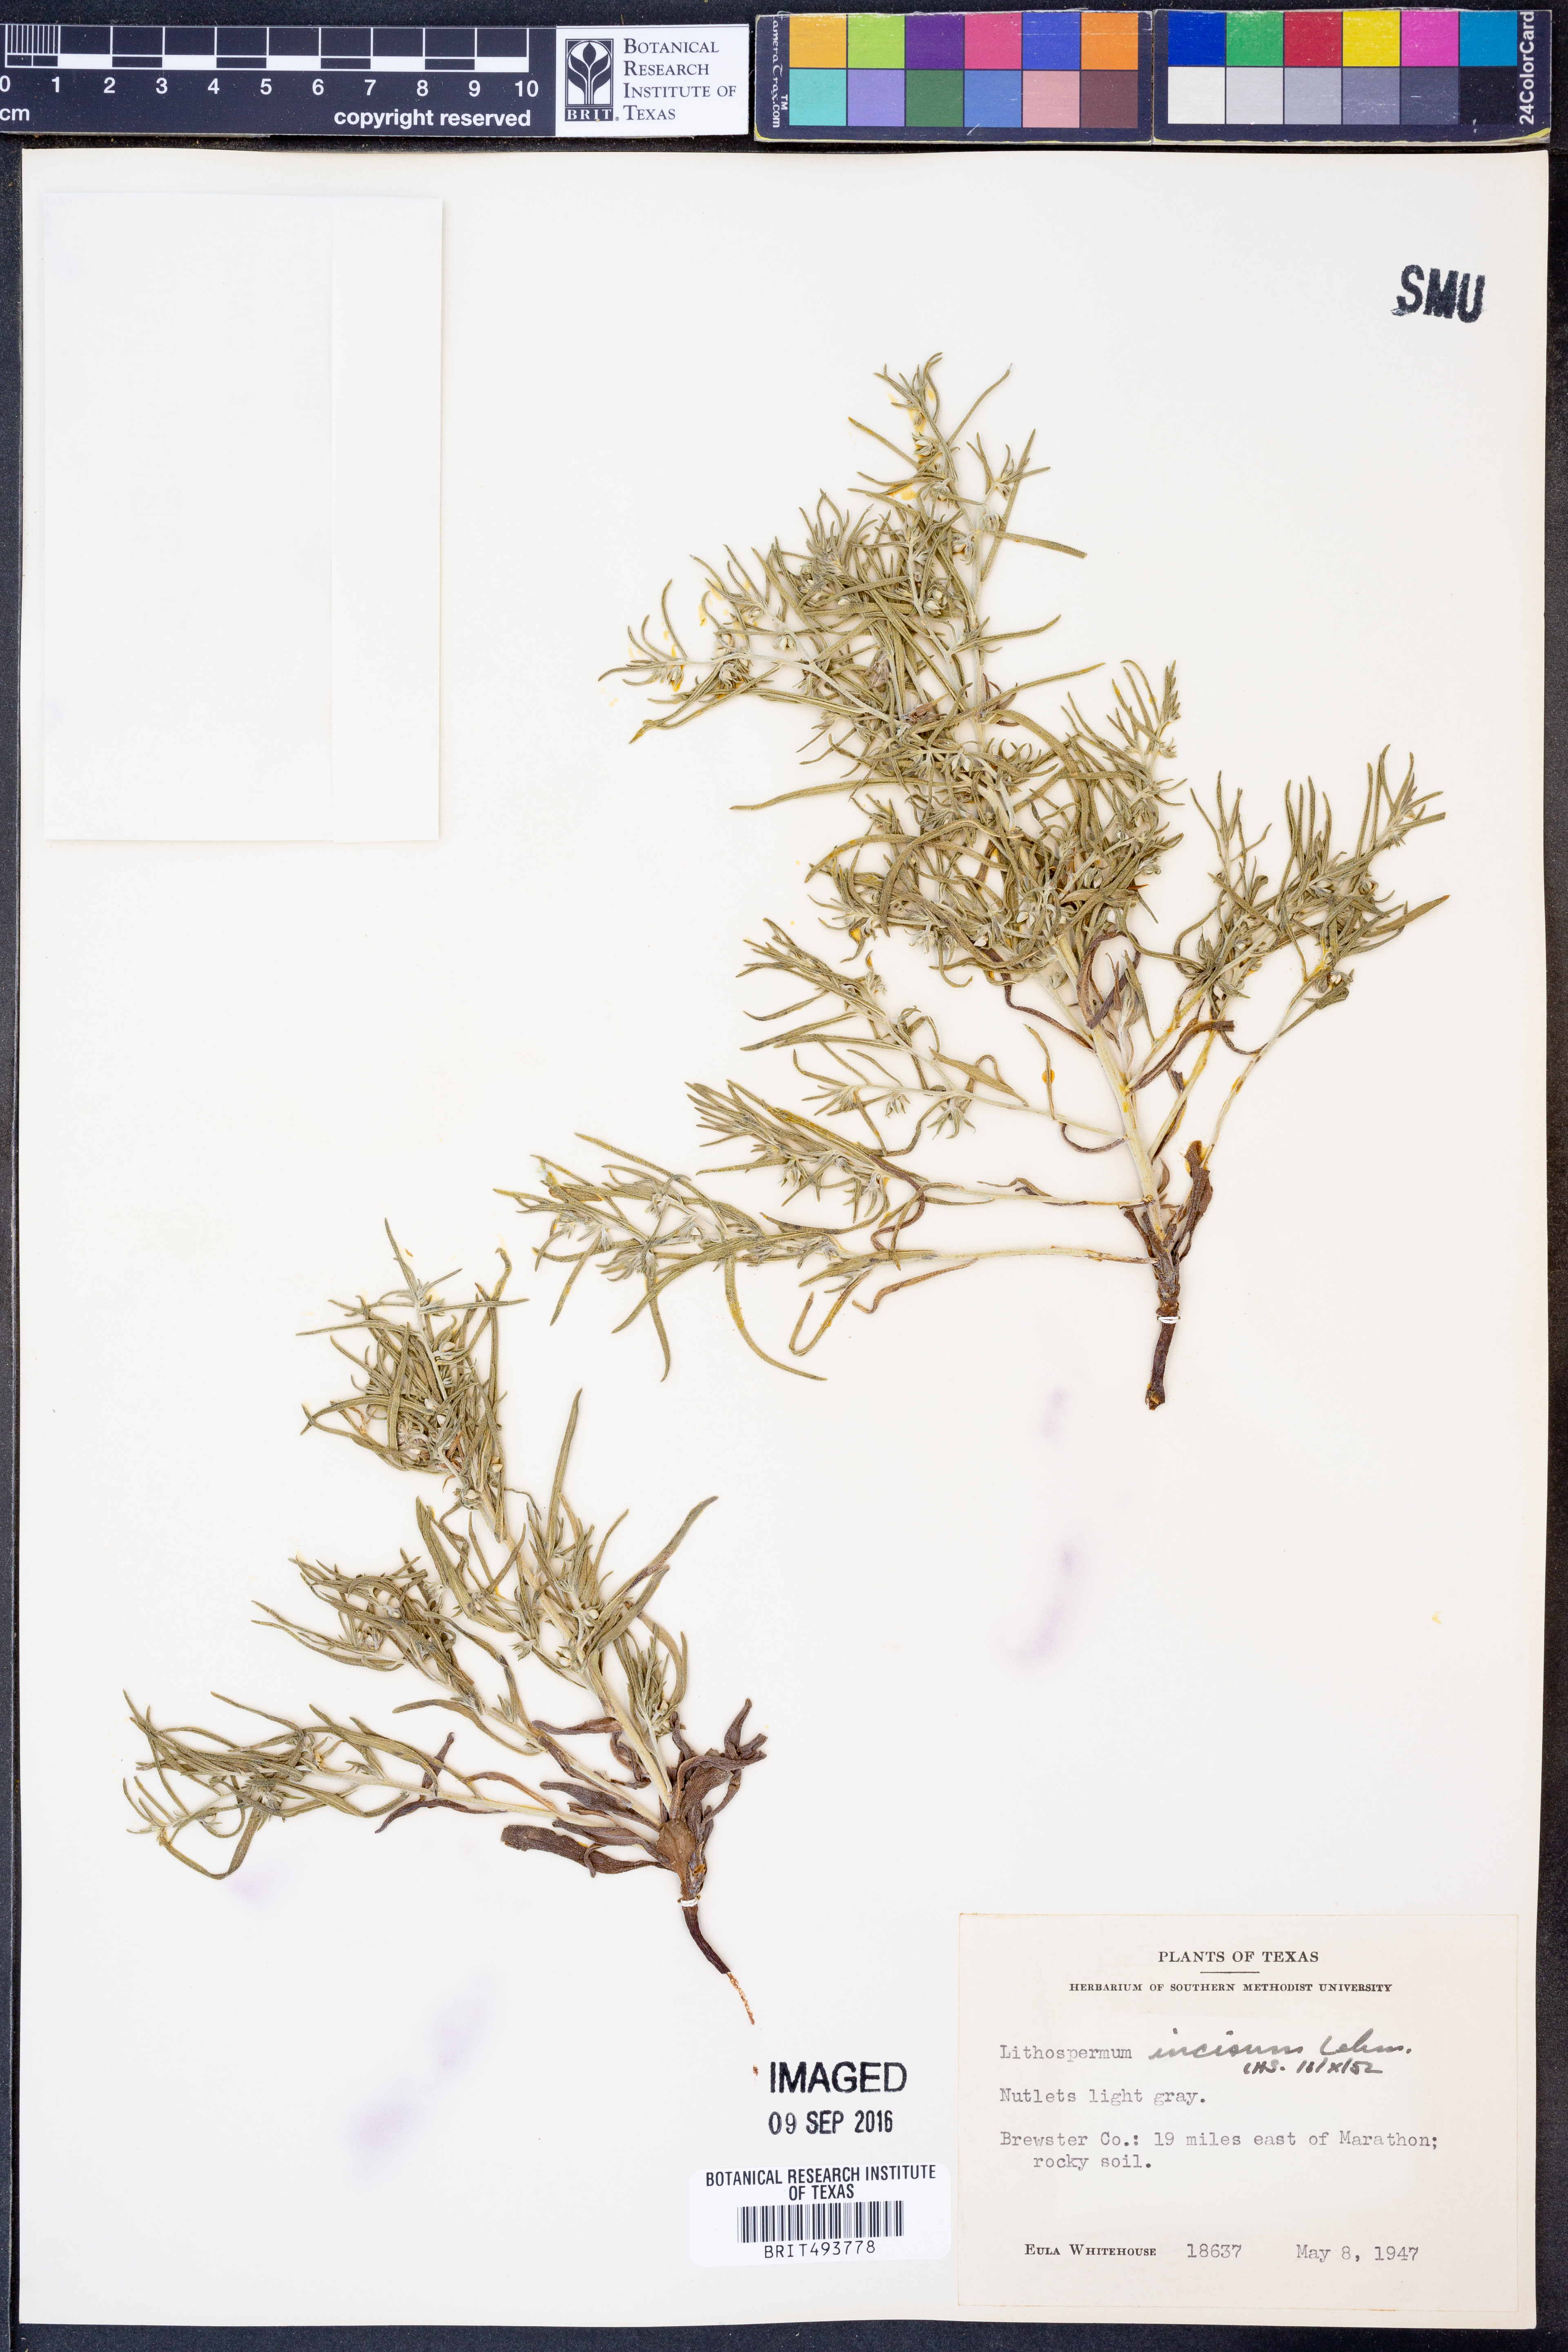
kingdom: Plantae
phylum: Tracheophyta
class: Magnoliopsida
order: Boraginales
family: Boraginaceae
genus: Lithospermum
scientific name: Lithospermum incisum
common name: Fringed gromwell
